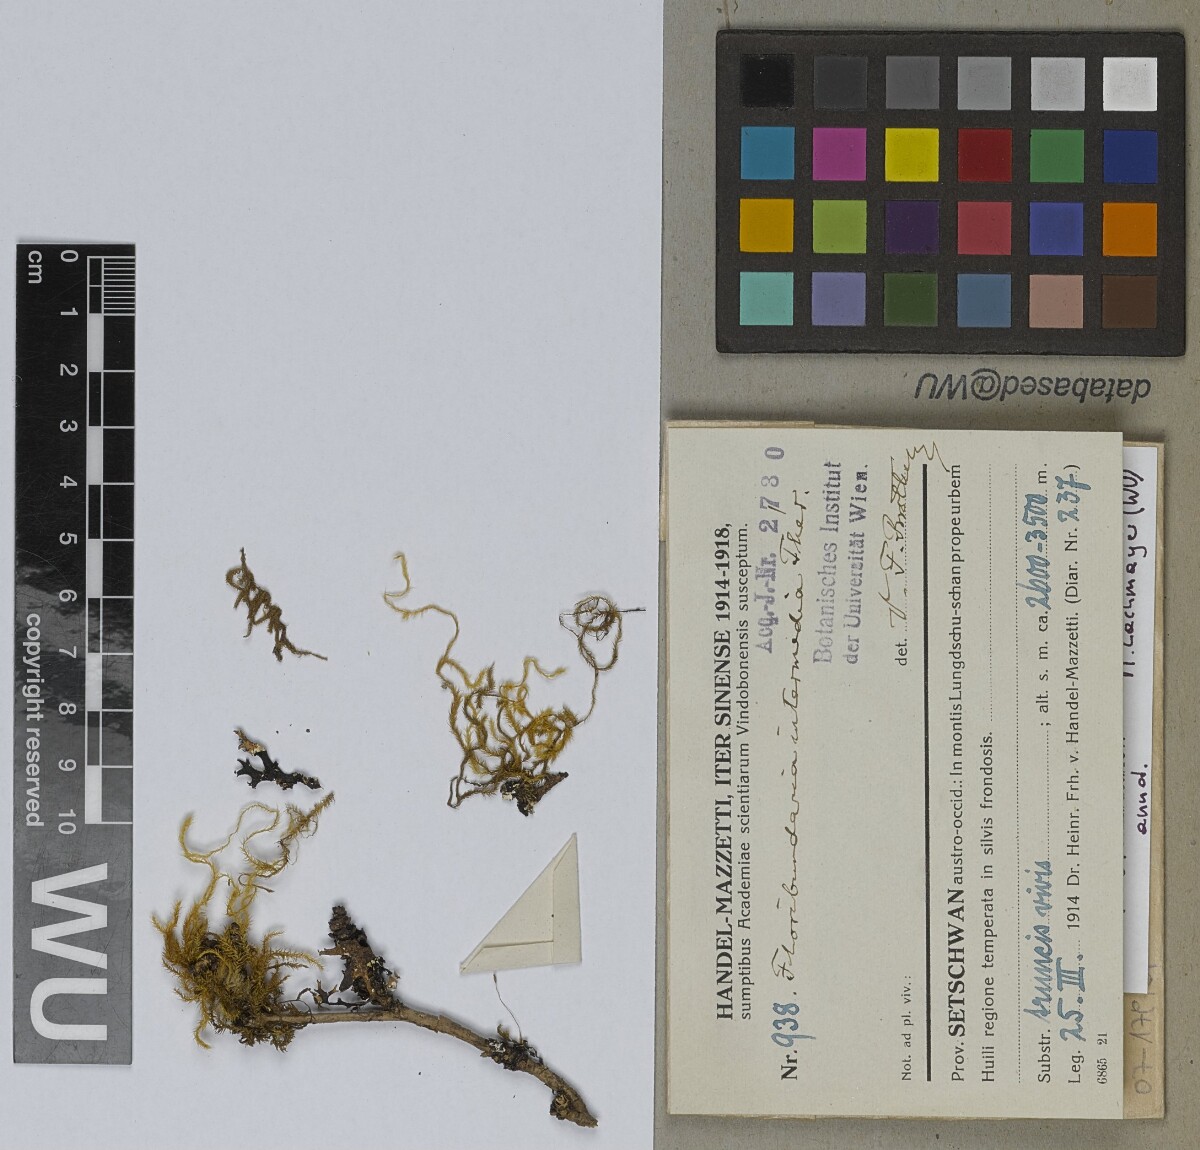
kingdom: Plantae
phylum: Bryophyta
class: Bryopsida
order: Hypnales
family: Meteoriaceae
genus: Floribundaria
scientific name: Floribundaria intermedia
